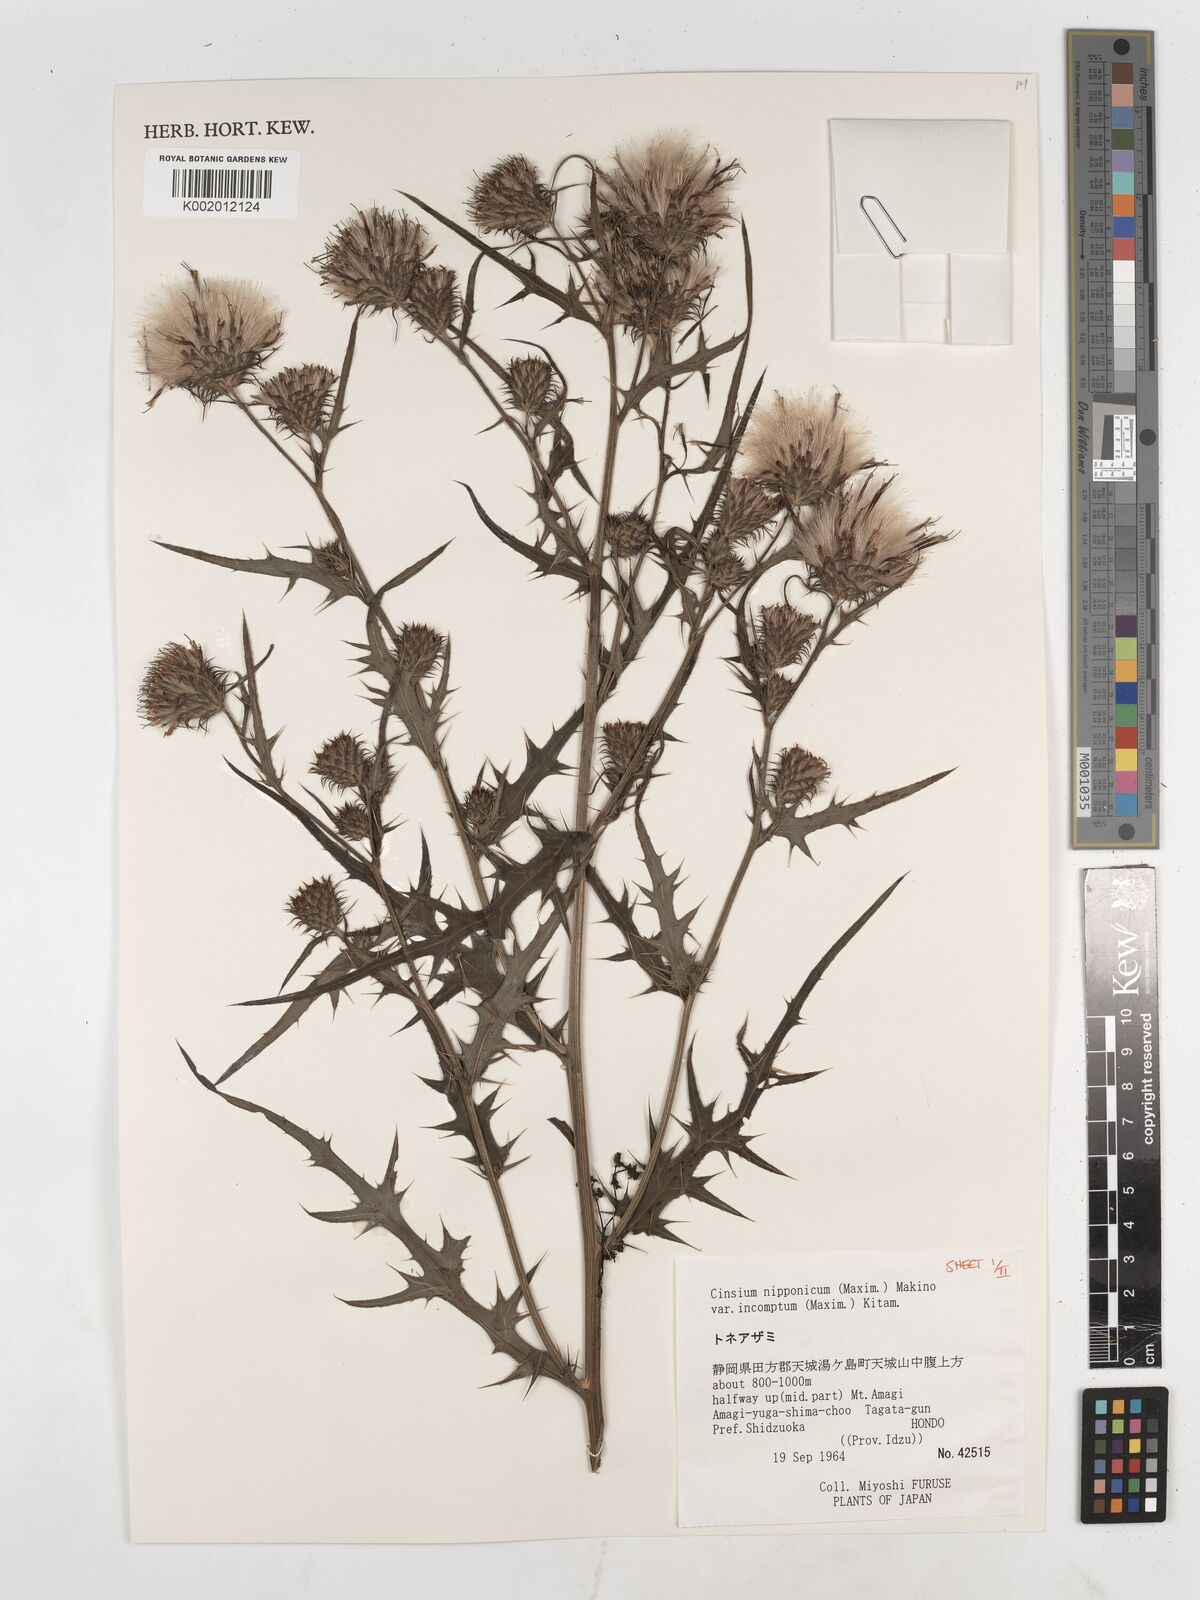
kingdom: Plantae
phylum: Tracheophyta
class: Magnoliopsida
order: Asterales
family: Asteraceae
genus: Cirsium
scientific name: Cirsium nipponicum
